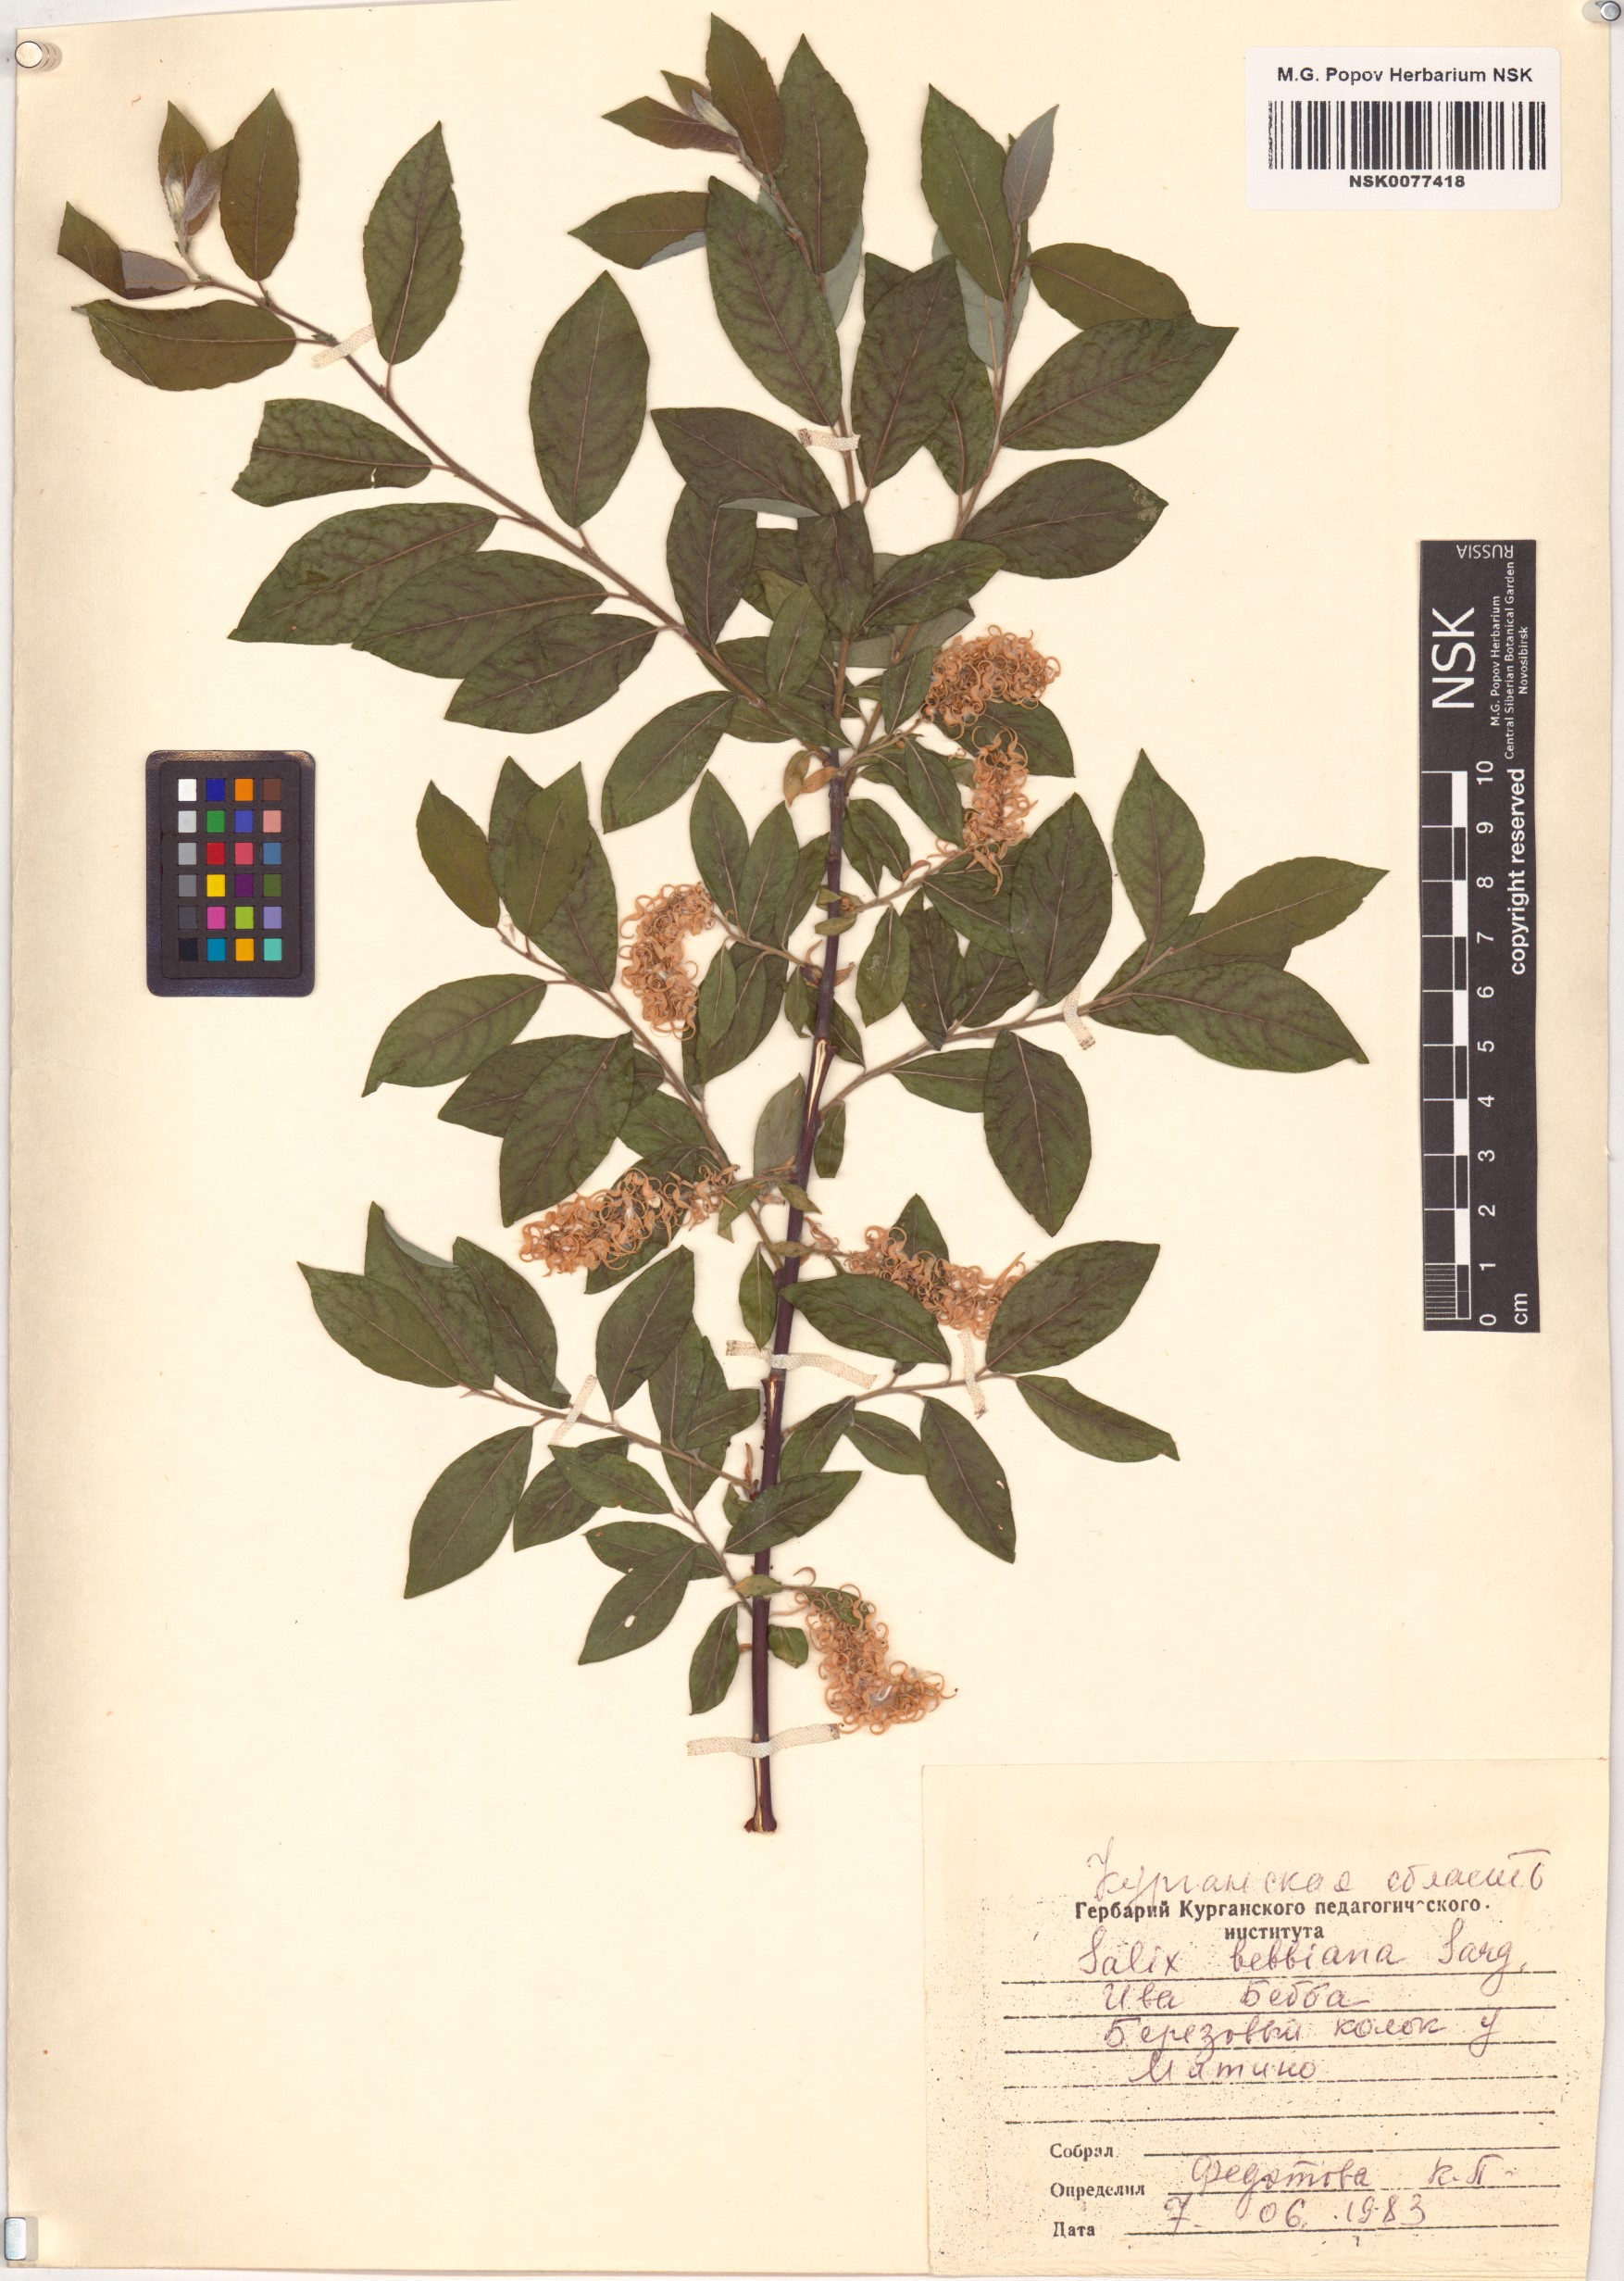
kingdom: Plantae
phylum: Tracheophyta
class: Magnoliopsida
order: Malpighiales
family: Salicaceae
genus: Salix
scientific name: Salix bebbiana
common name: Bebb's willow
